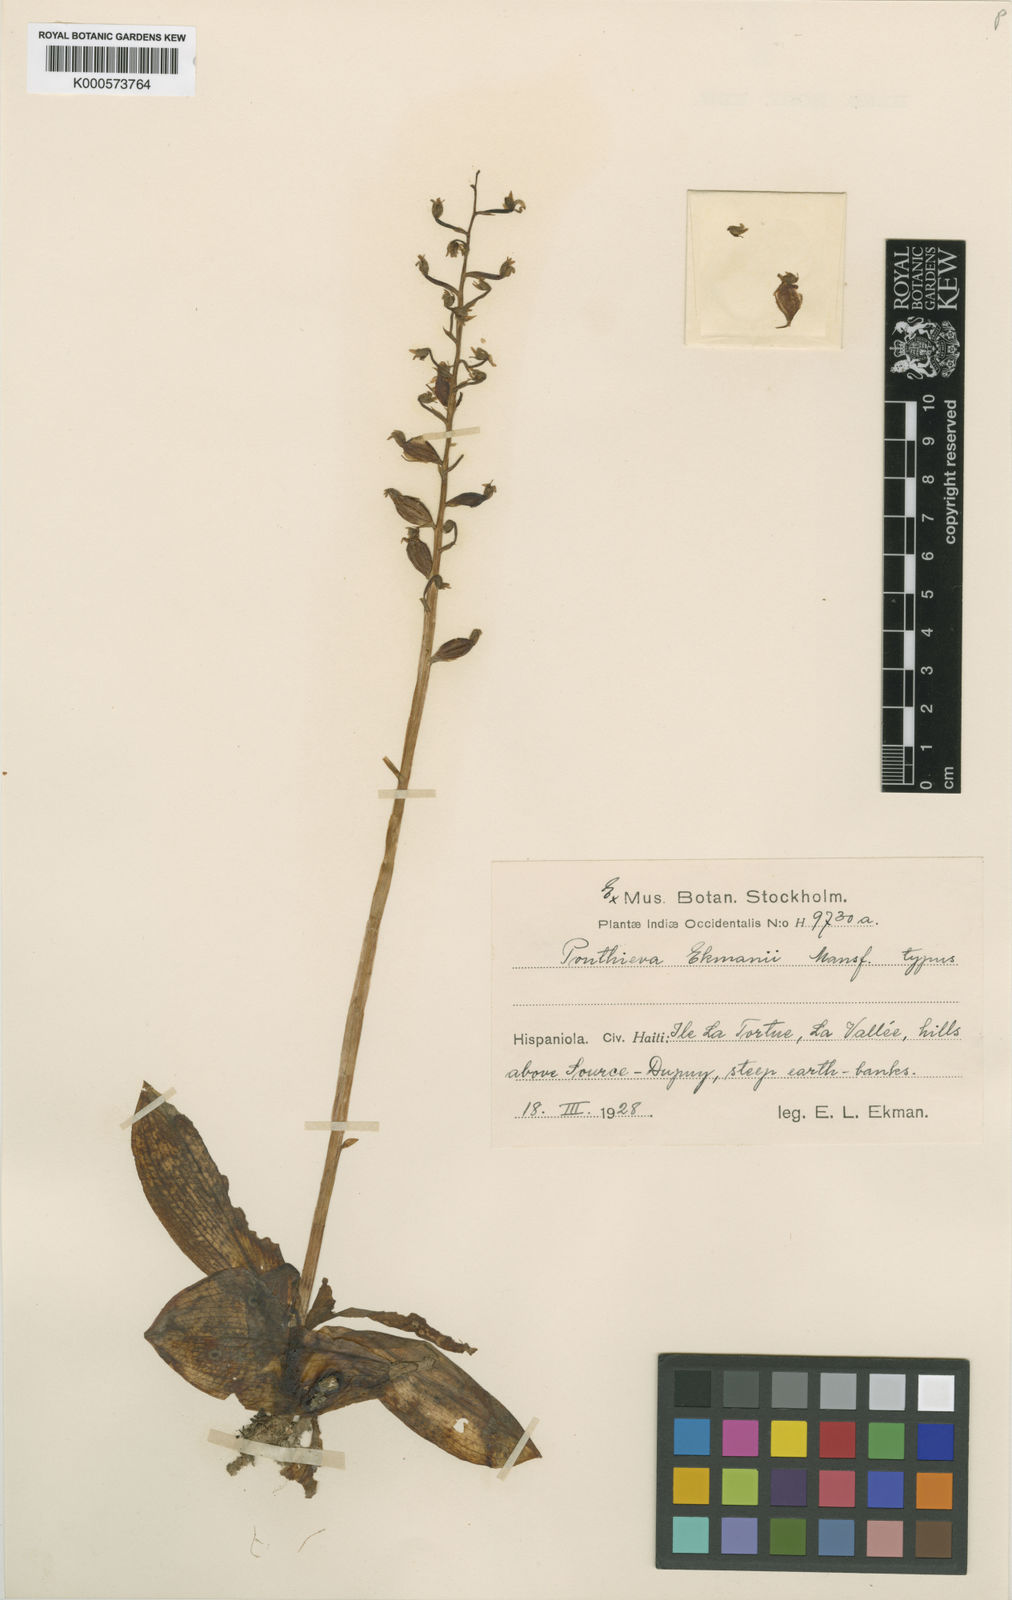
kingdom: Plantae
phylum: Tracheophyta
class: Liliopsida
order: Asparagales
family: Orchidaceae
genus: Ponthieva
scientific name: Ponthieva brittoniae
